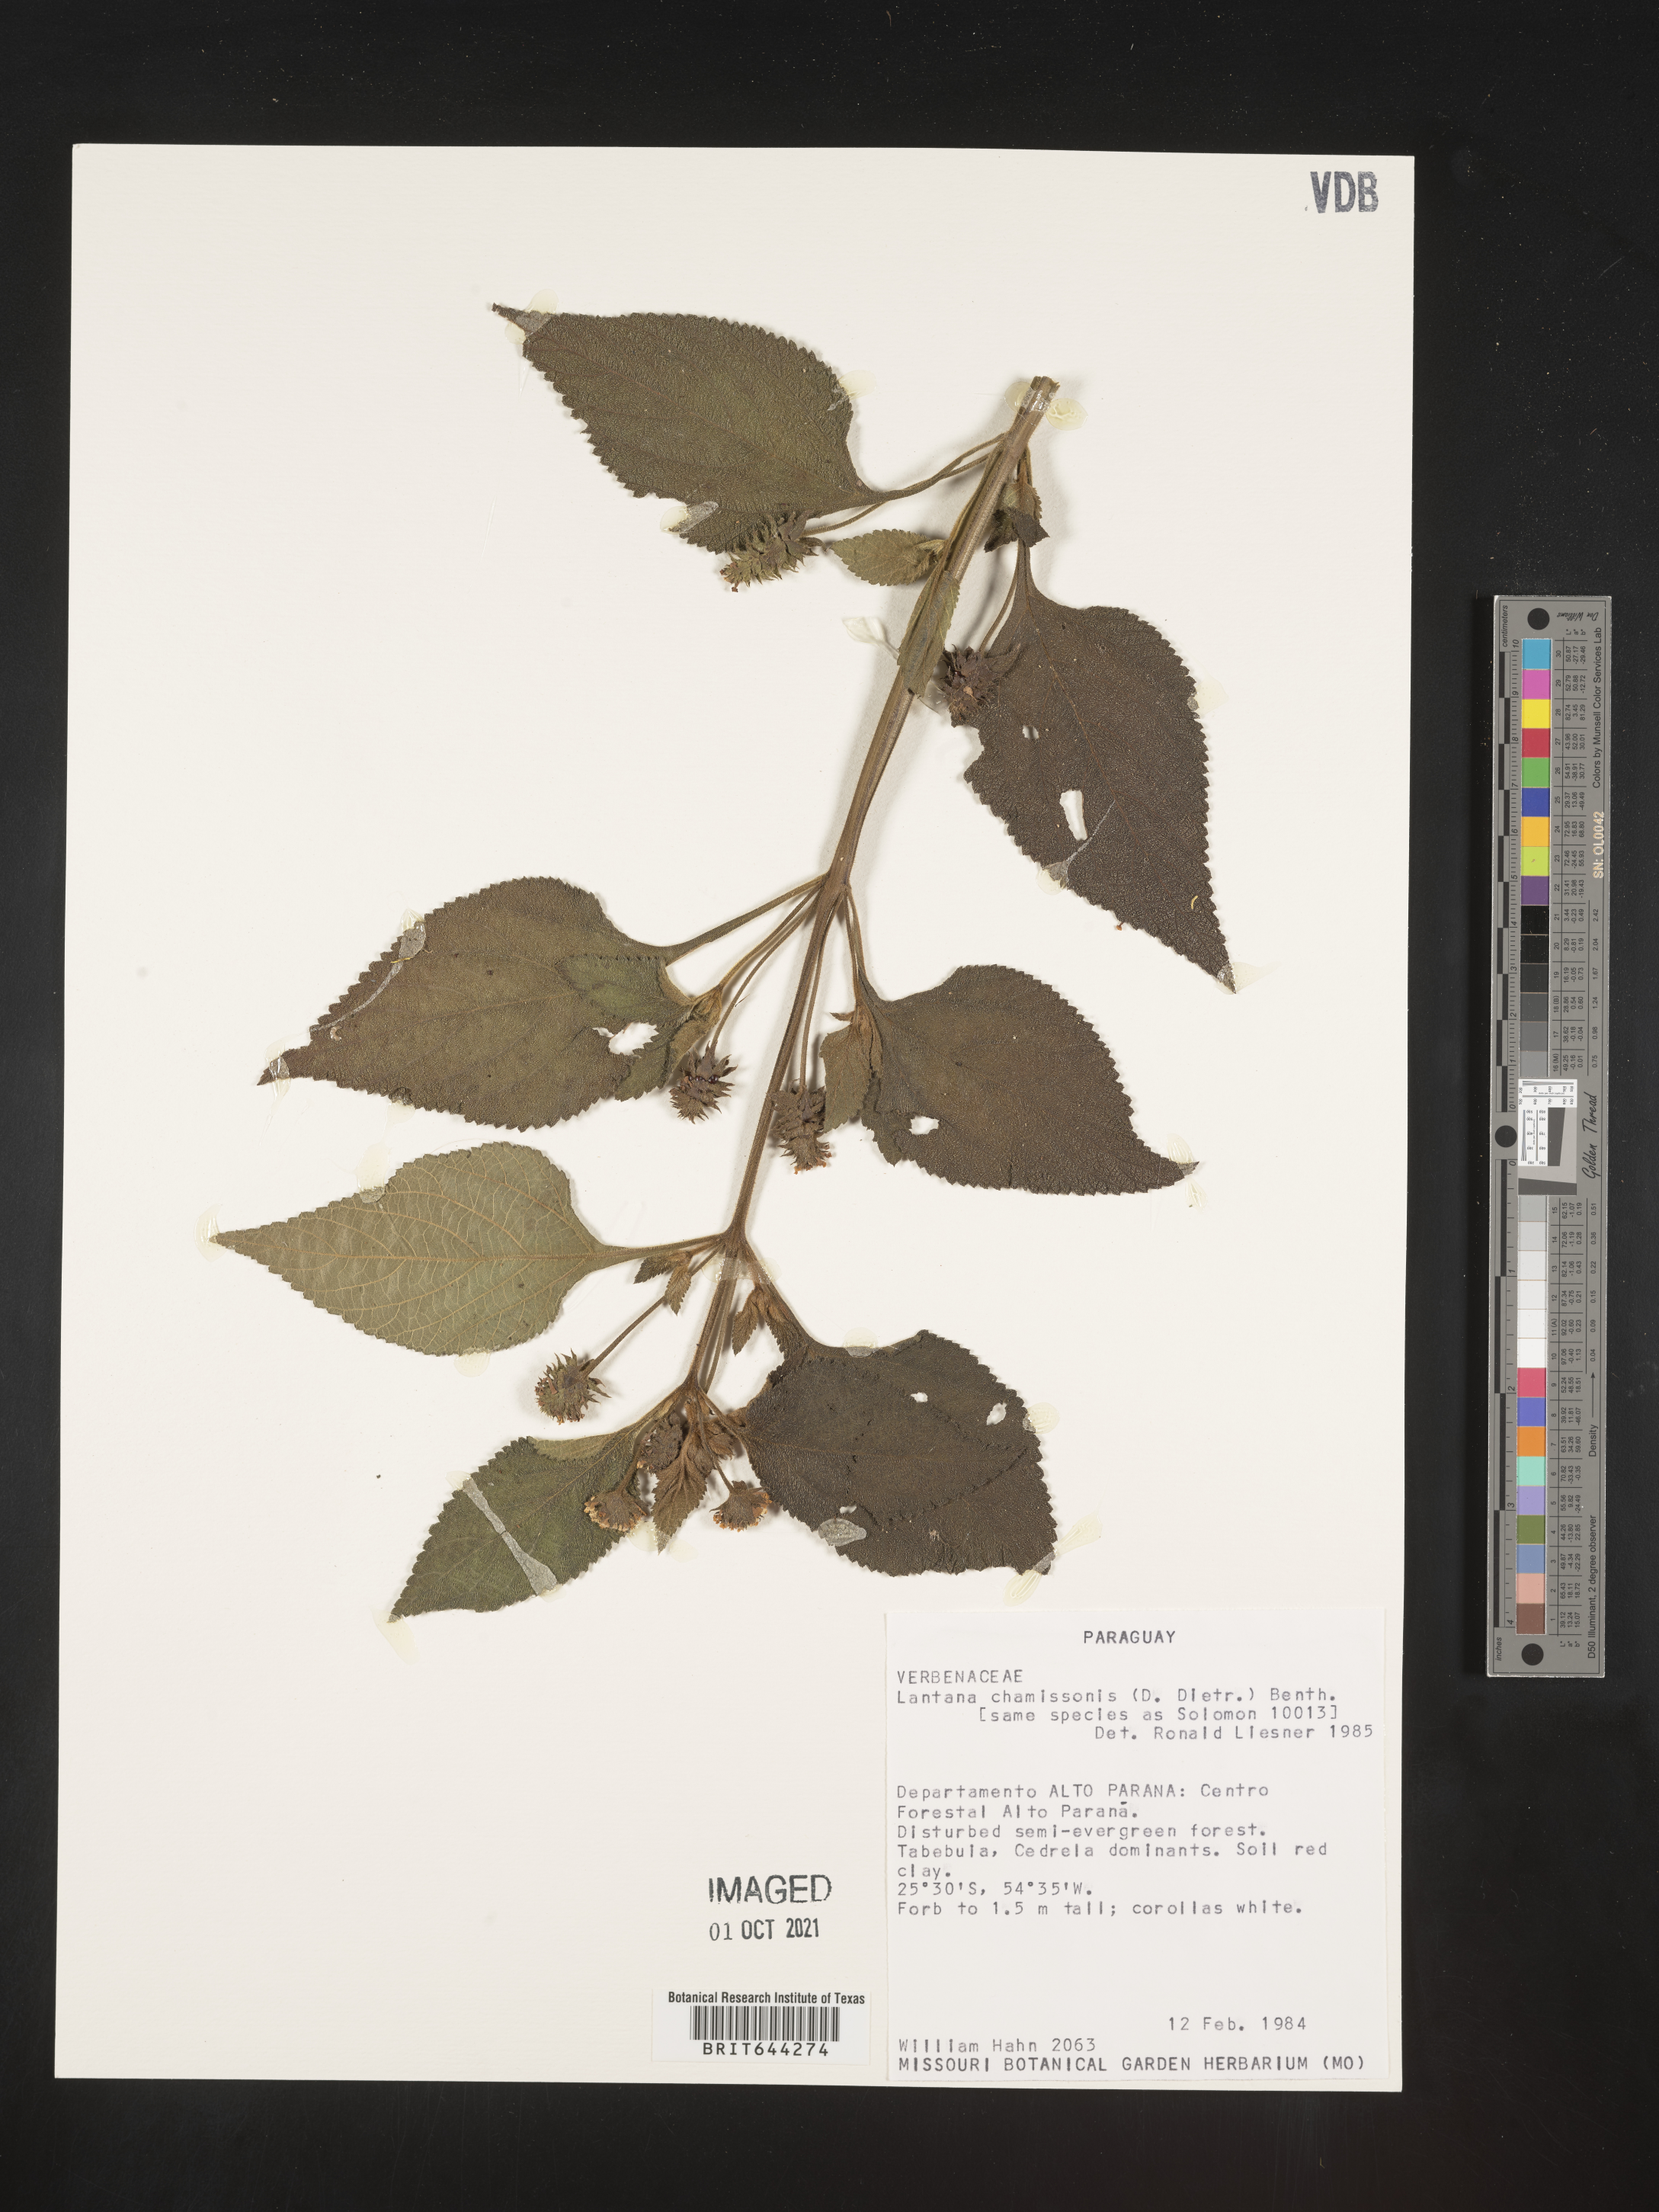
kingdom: Plantae
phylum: Tracheophyta
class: Magnoliopsida
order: Lamiales
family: Verbenaceae
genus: Lantana
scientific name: Lantana
